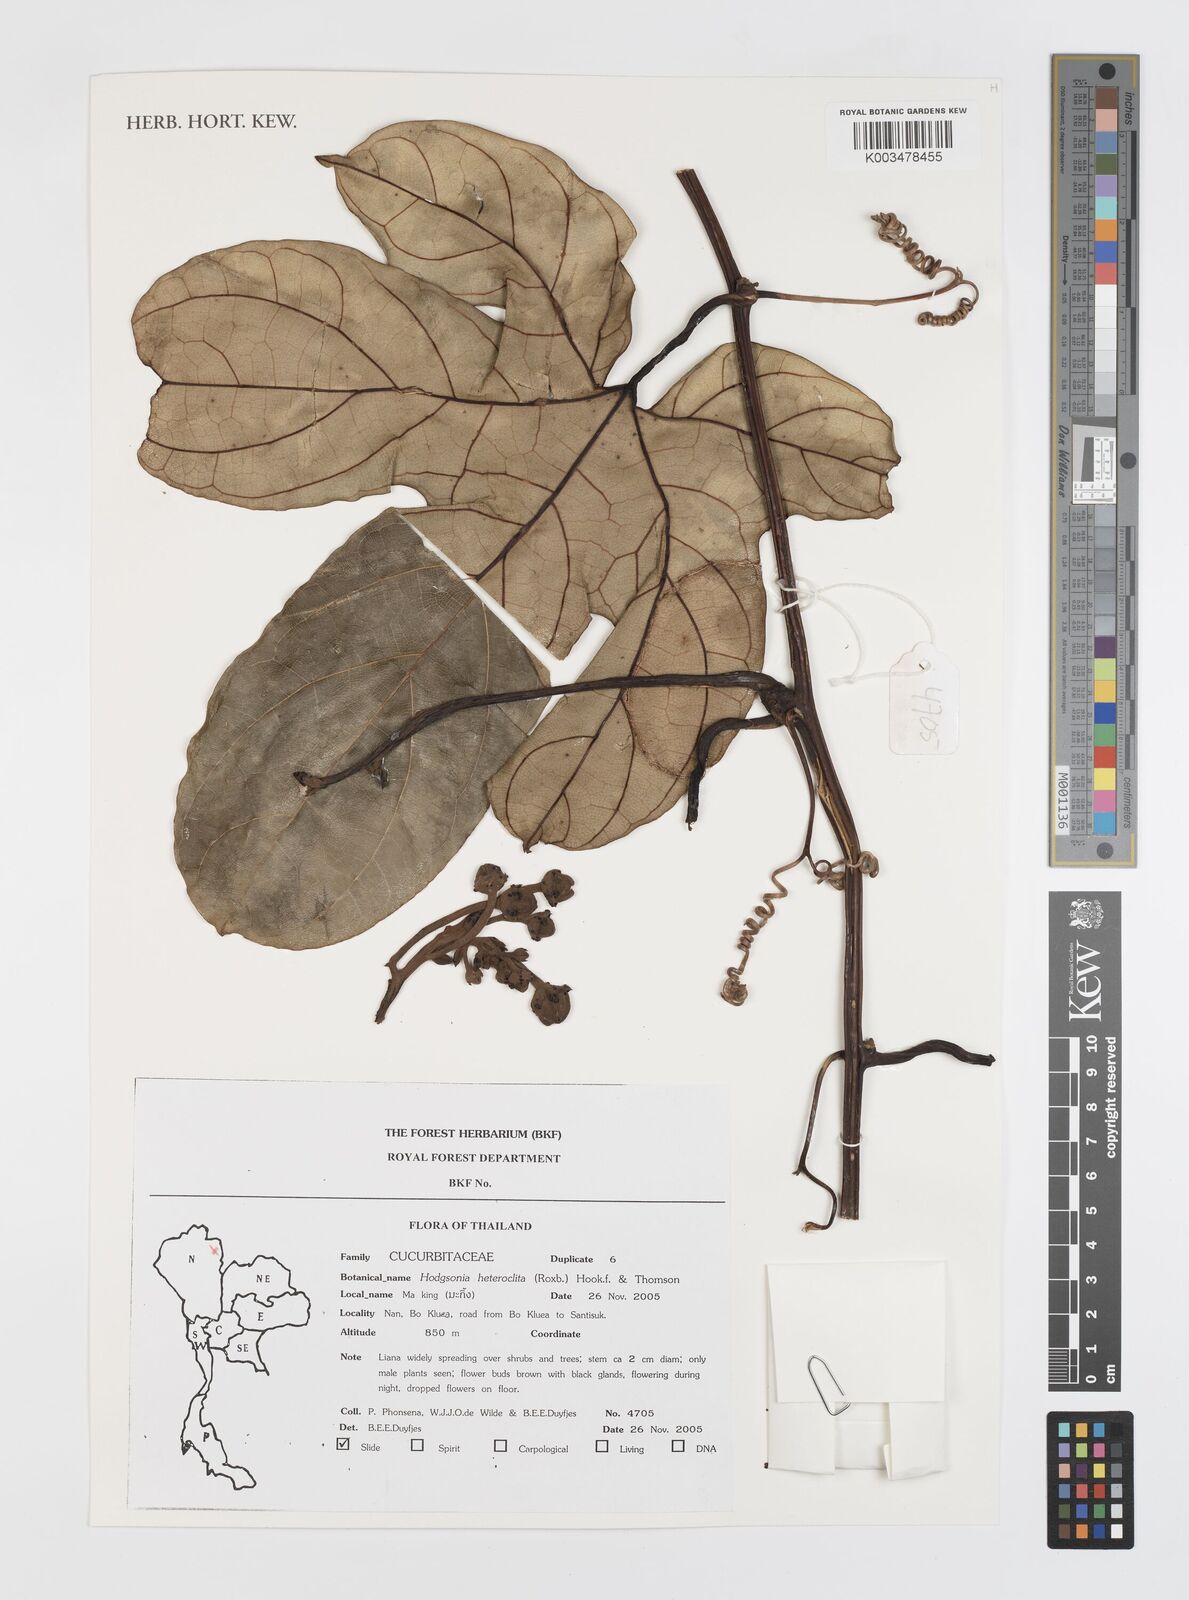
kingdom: Plantae
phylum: Tracheophyta
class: Magnoliopsida
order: Cucurbitales
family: Cucurbitaceae
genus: Hodgsonia
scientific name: Hodgsonia heteroclita
